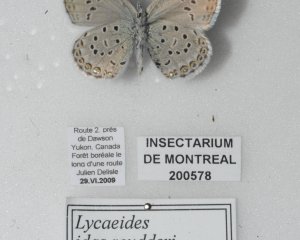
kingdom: Animalia
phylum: Arthropoda
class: Insecta
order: Lepidoptera
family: Lycaenidae
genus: Lycaeides
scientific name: Lycaeides idas
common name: Northern Blue
